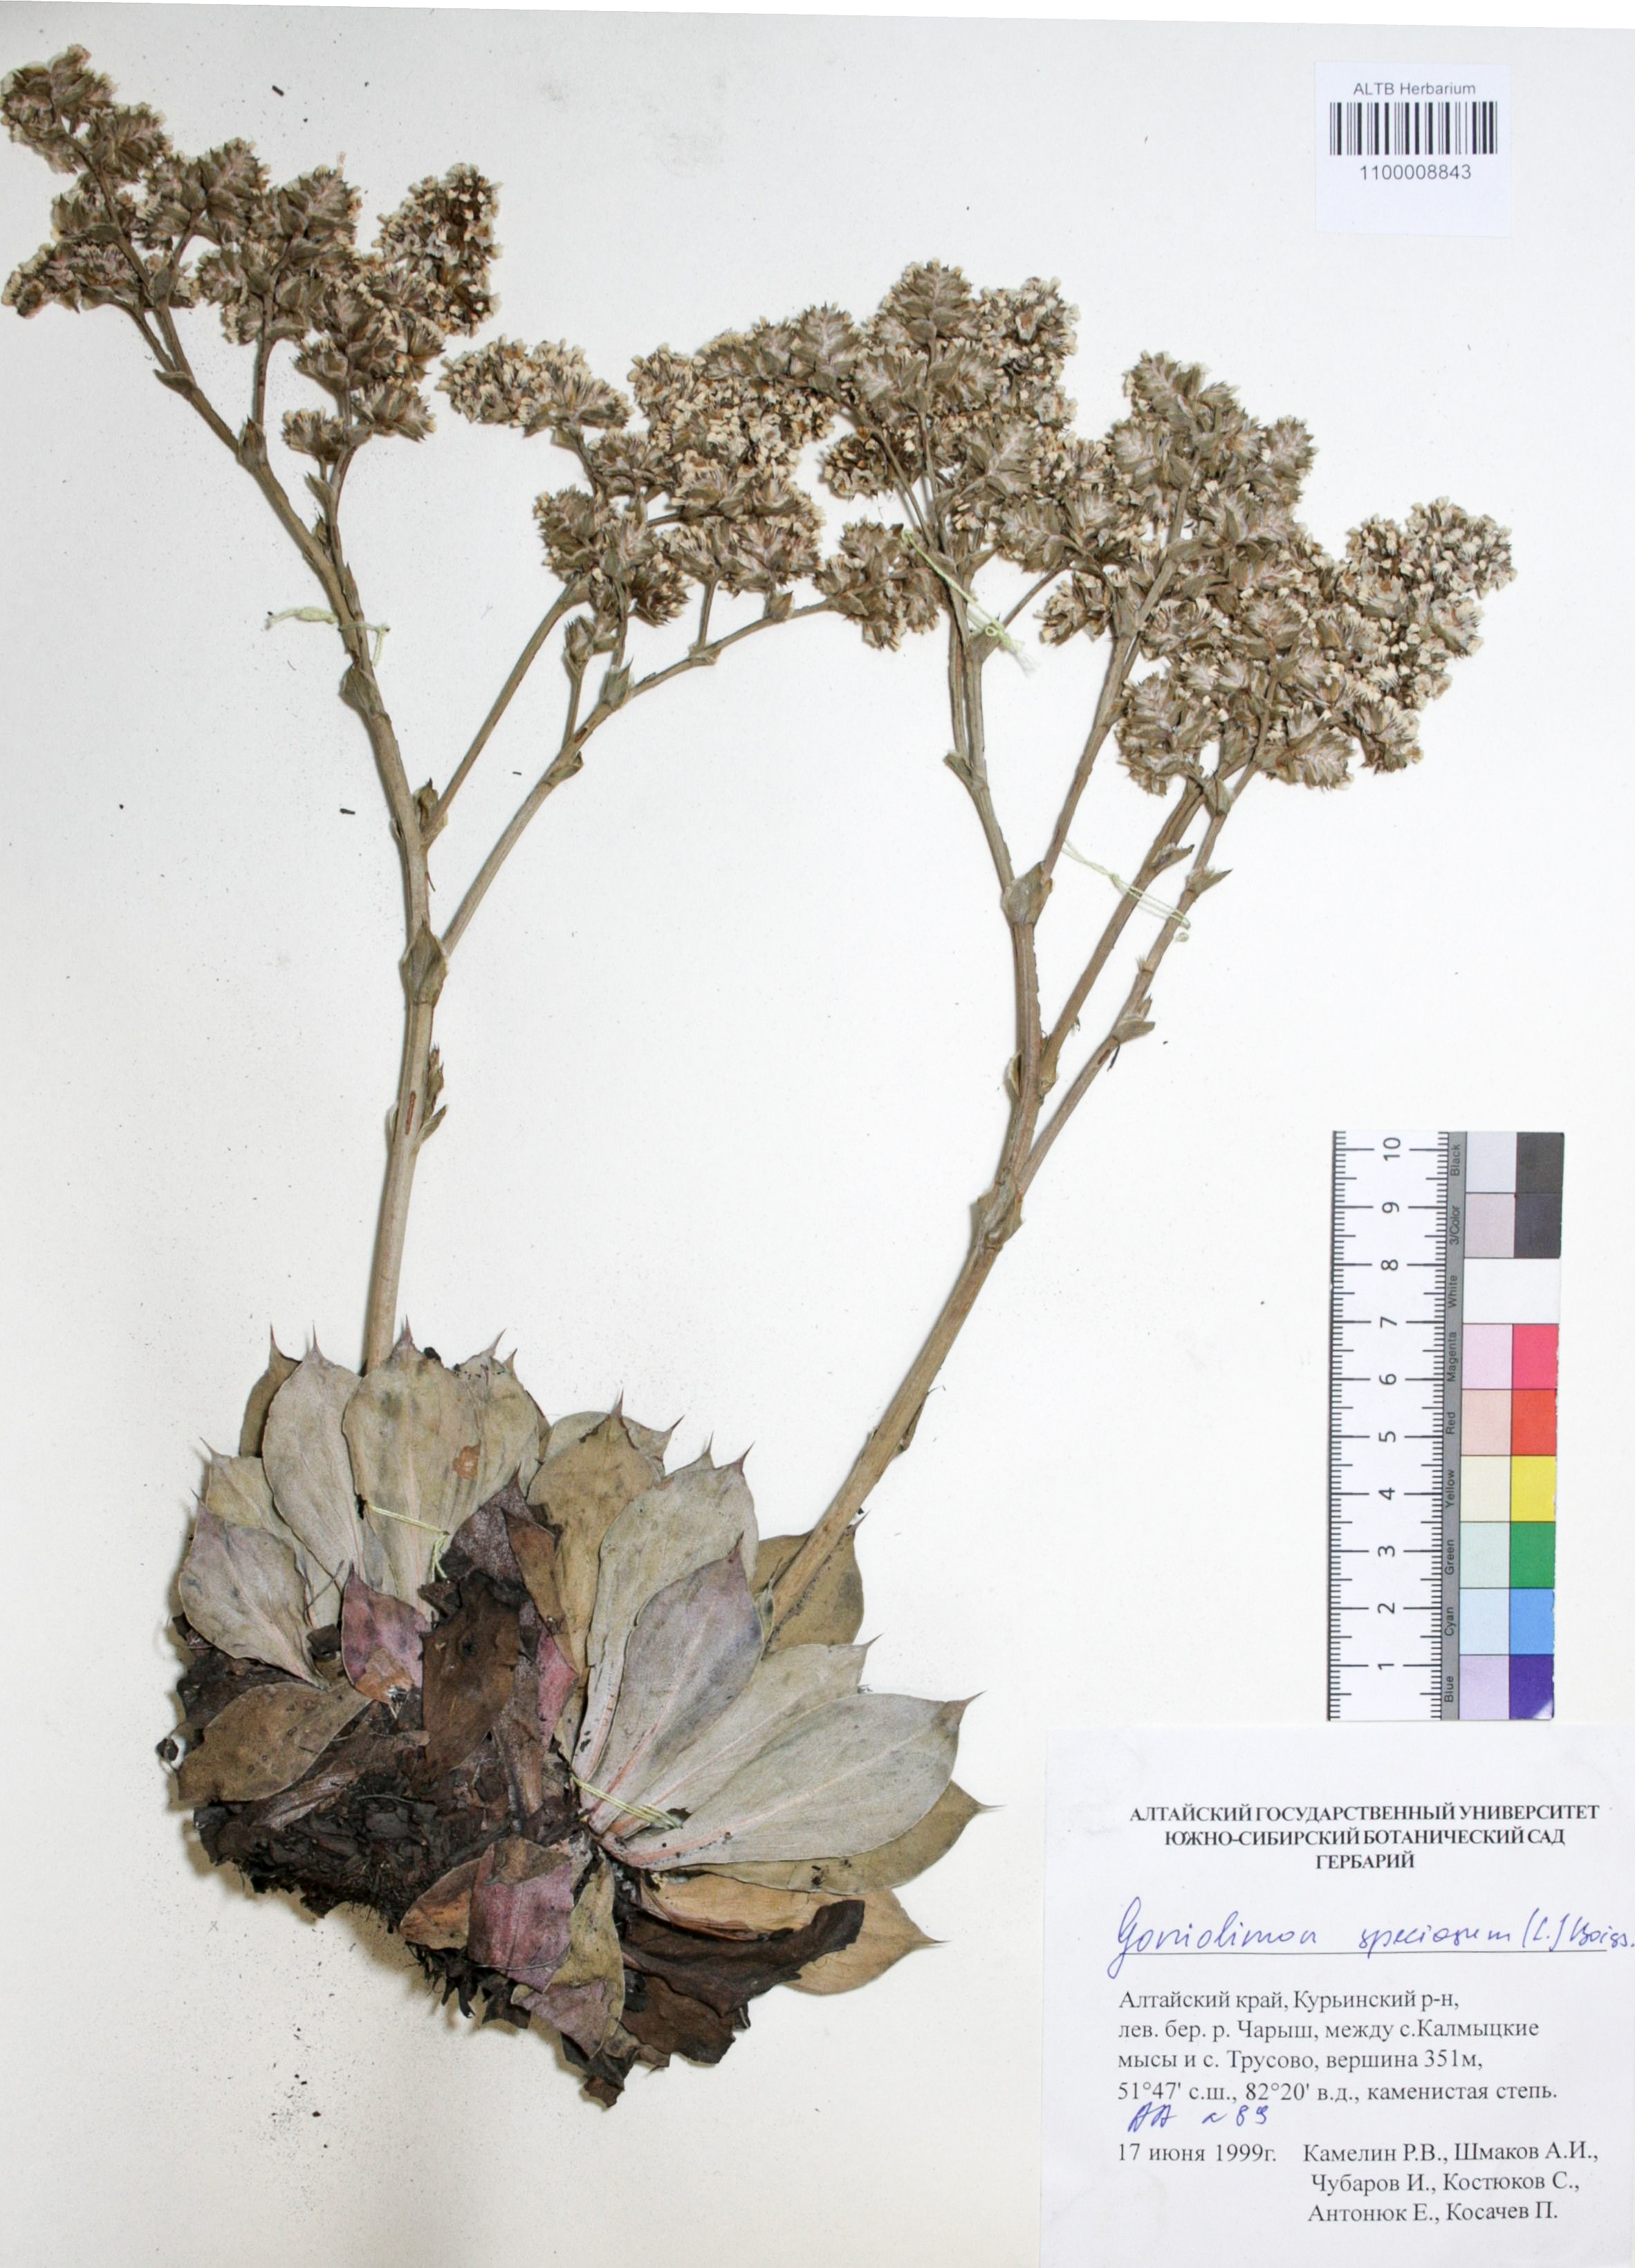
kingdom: Plantae
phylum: Tracheophyta
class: Magnoliopsida
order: Caryophyllales
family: Plumbaginaceae
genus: Goniolimon
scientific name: Goniolimon speciosum
